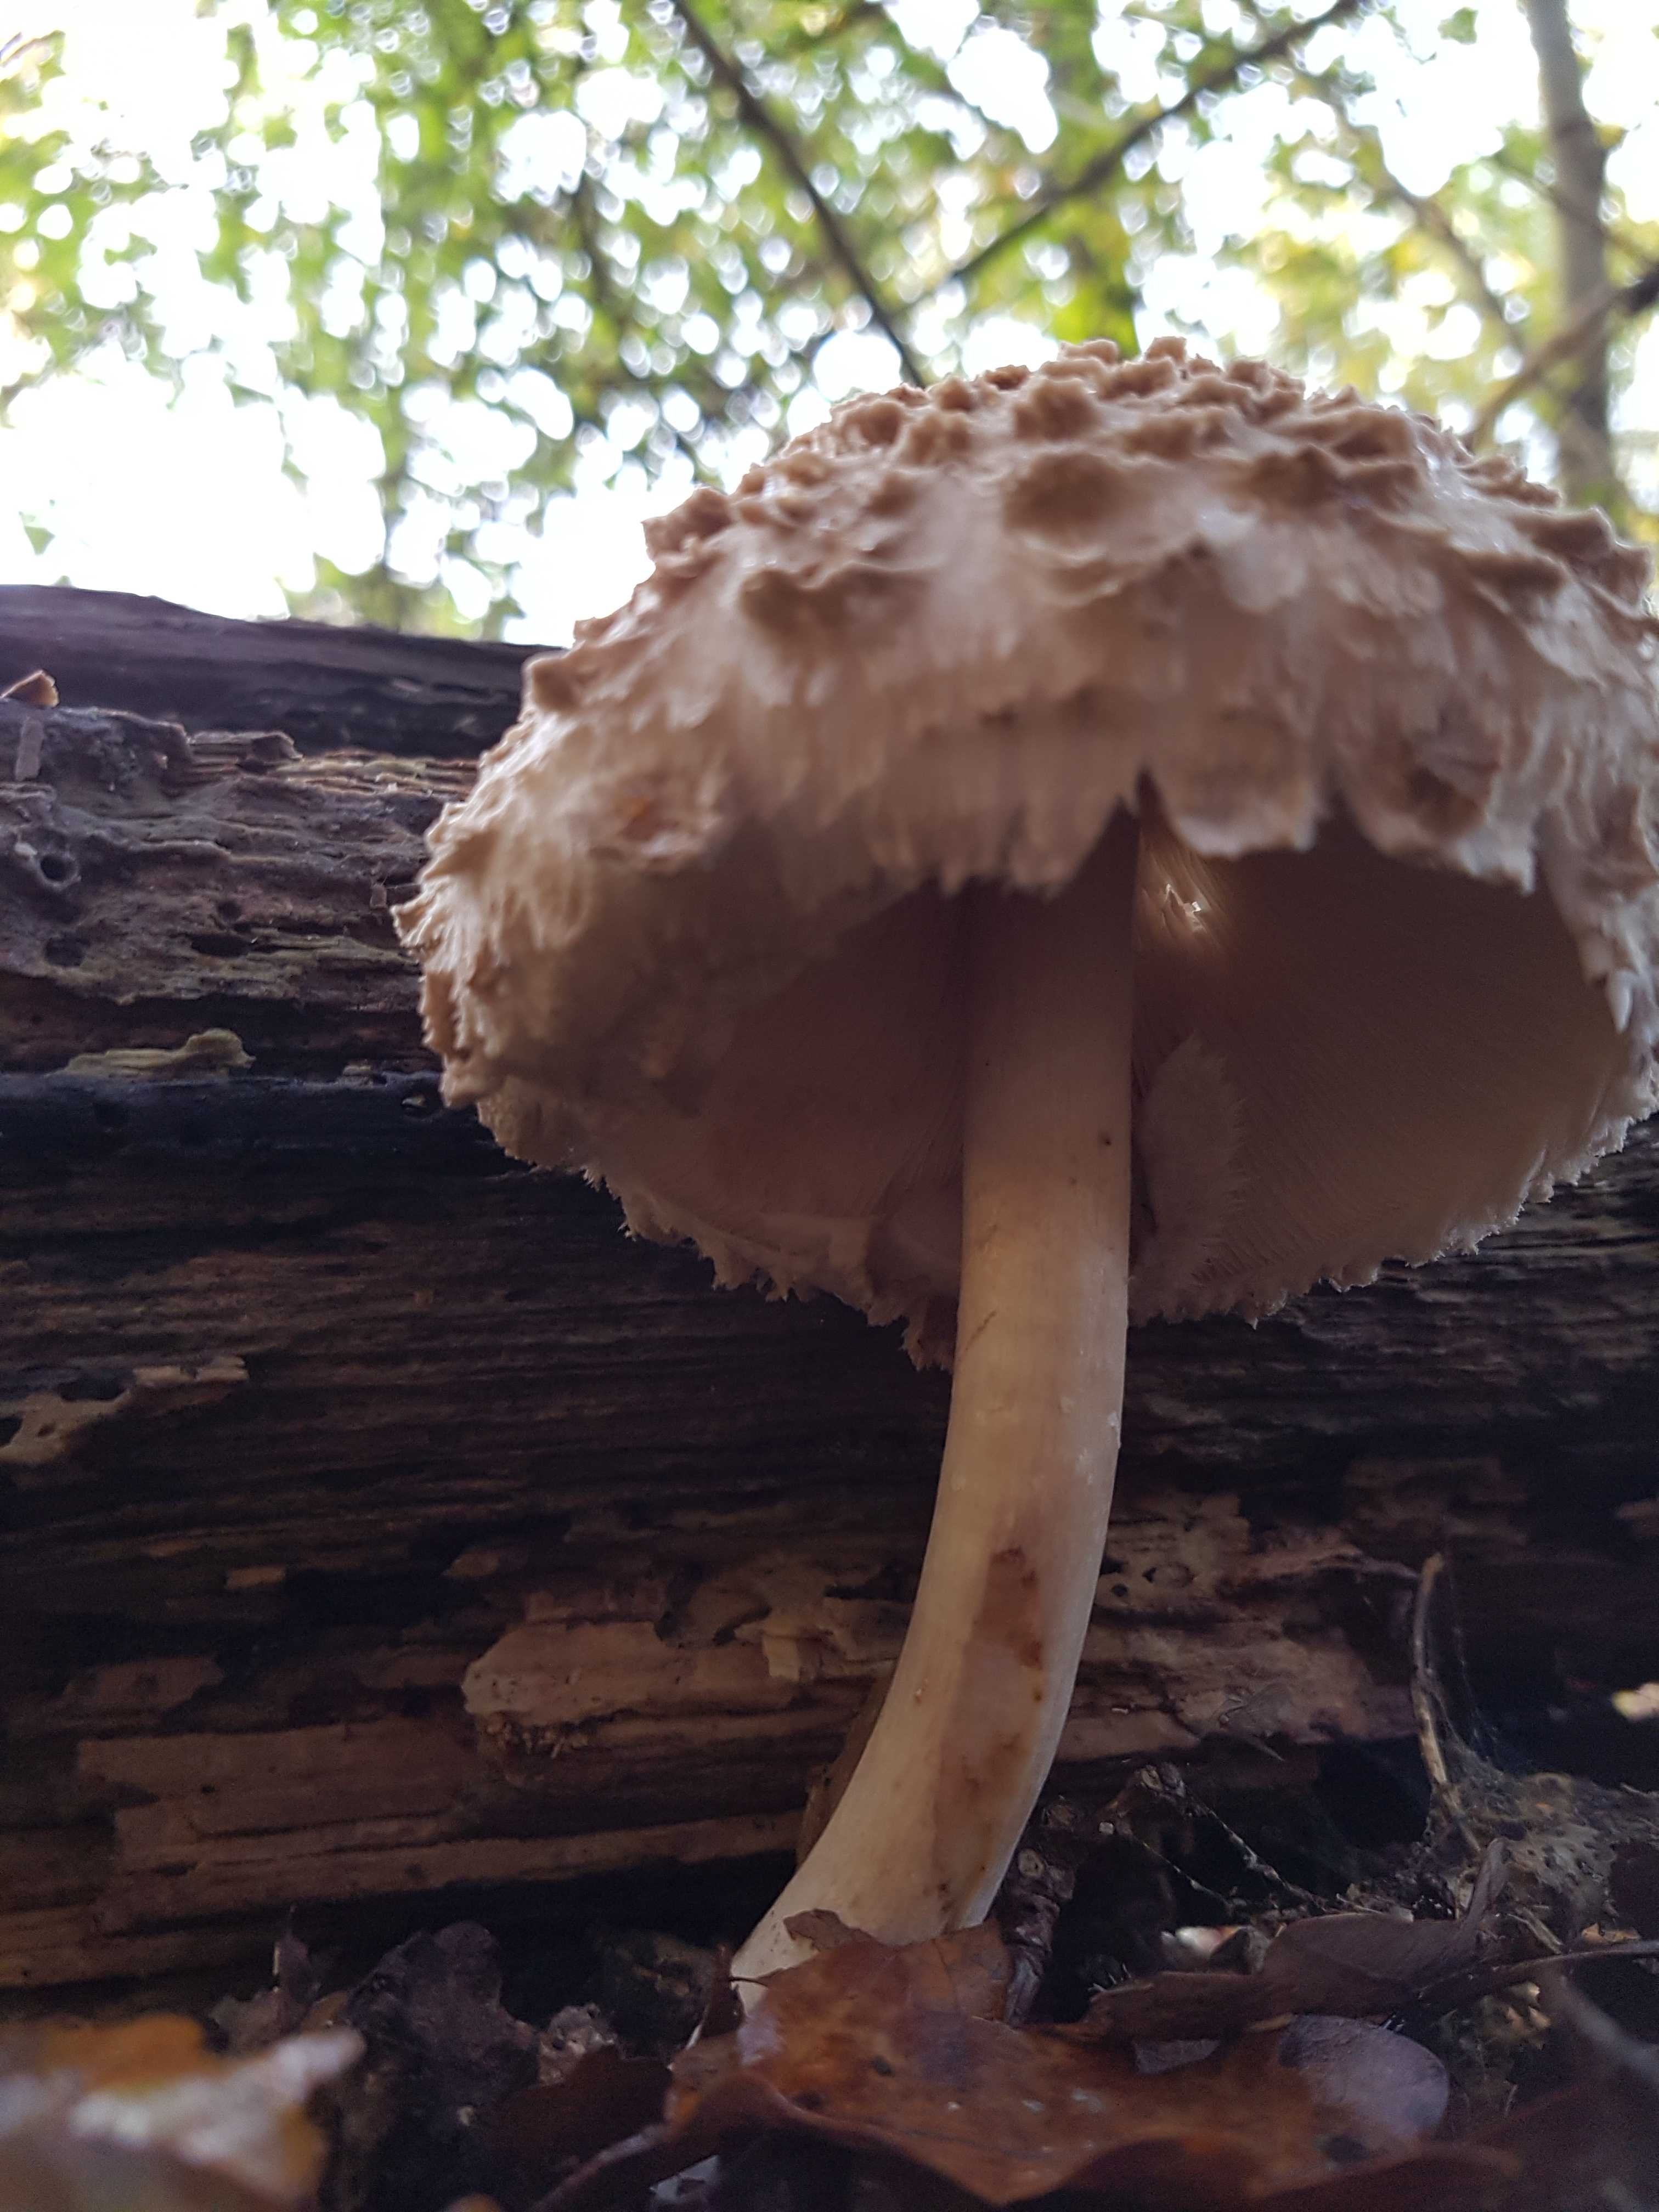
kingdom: Fungi
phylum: Basidiomycota
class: Agaricomycetes
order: Agaricales
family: Agaricaceae
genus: Chlorophyllum
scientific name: Chlorophyllum olivieri
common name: almindelig rabarberhat
